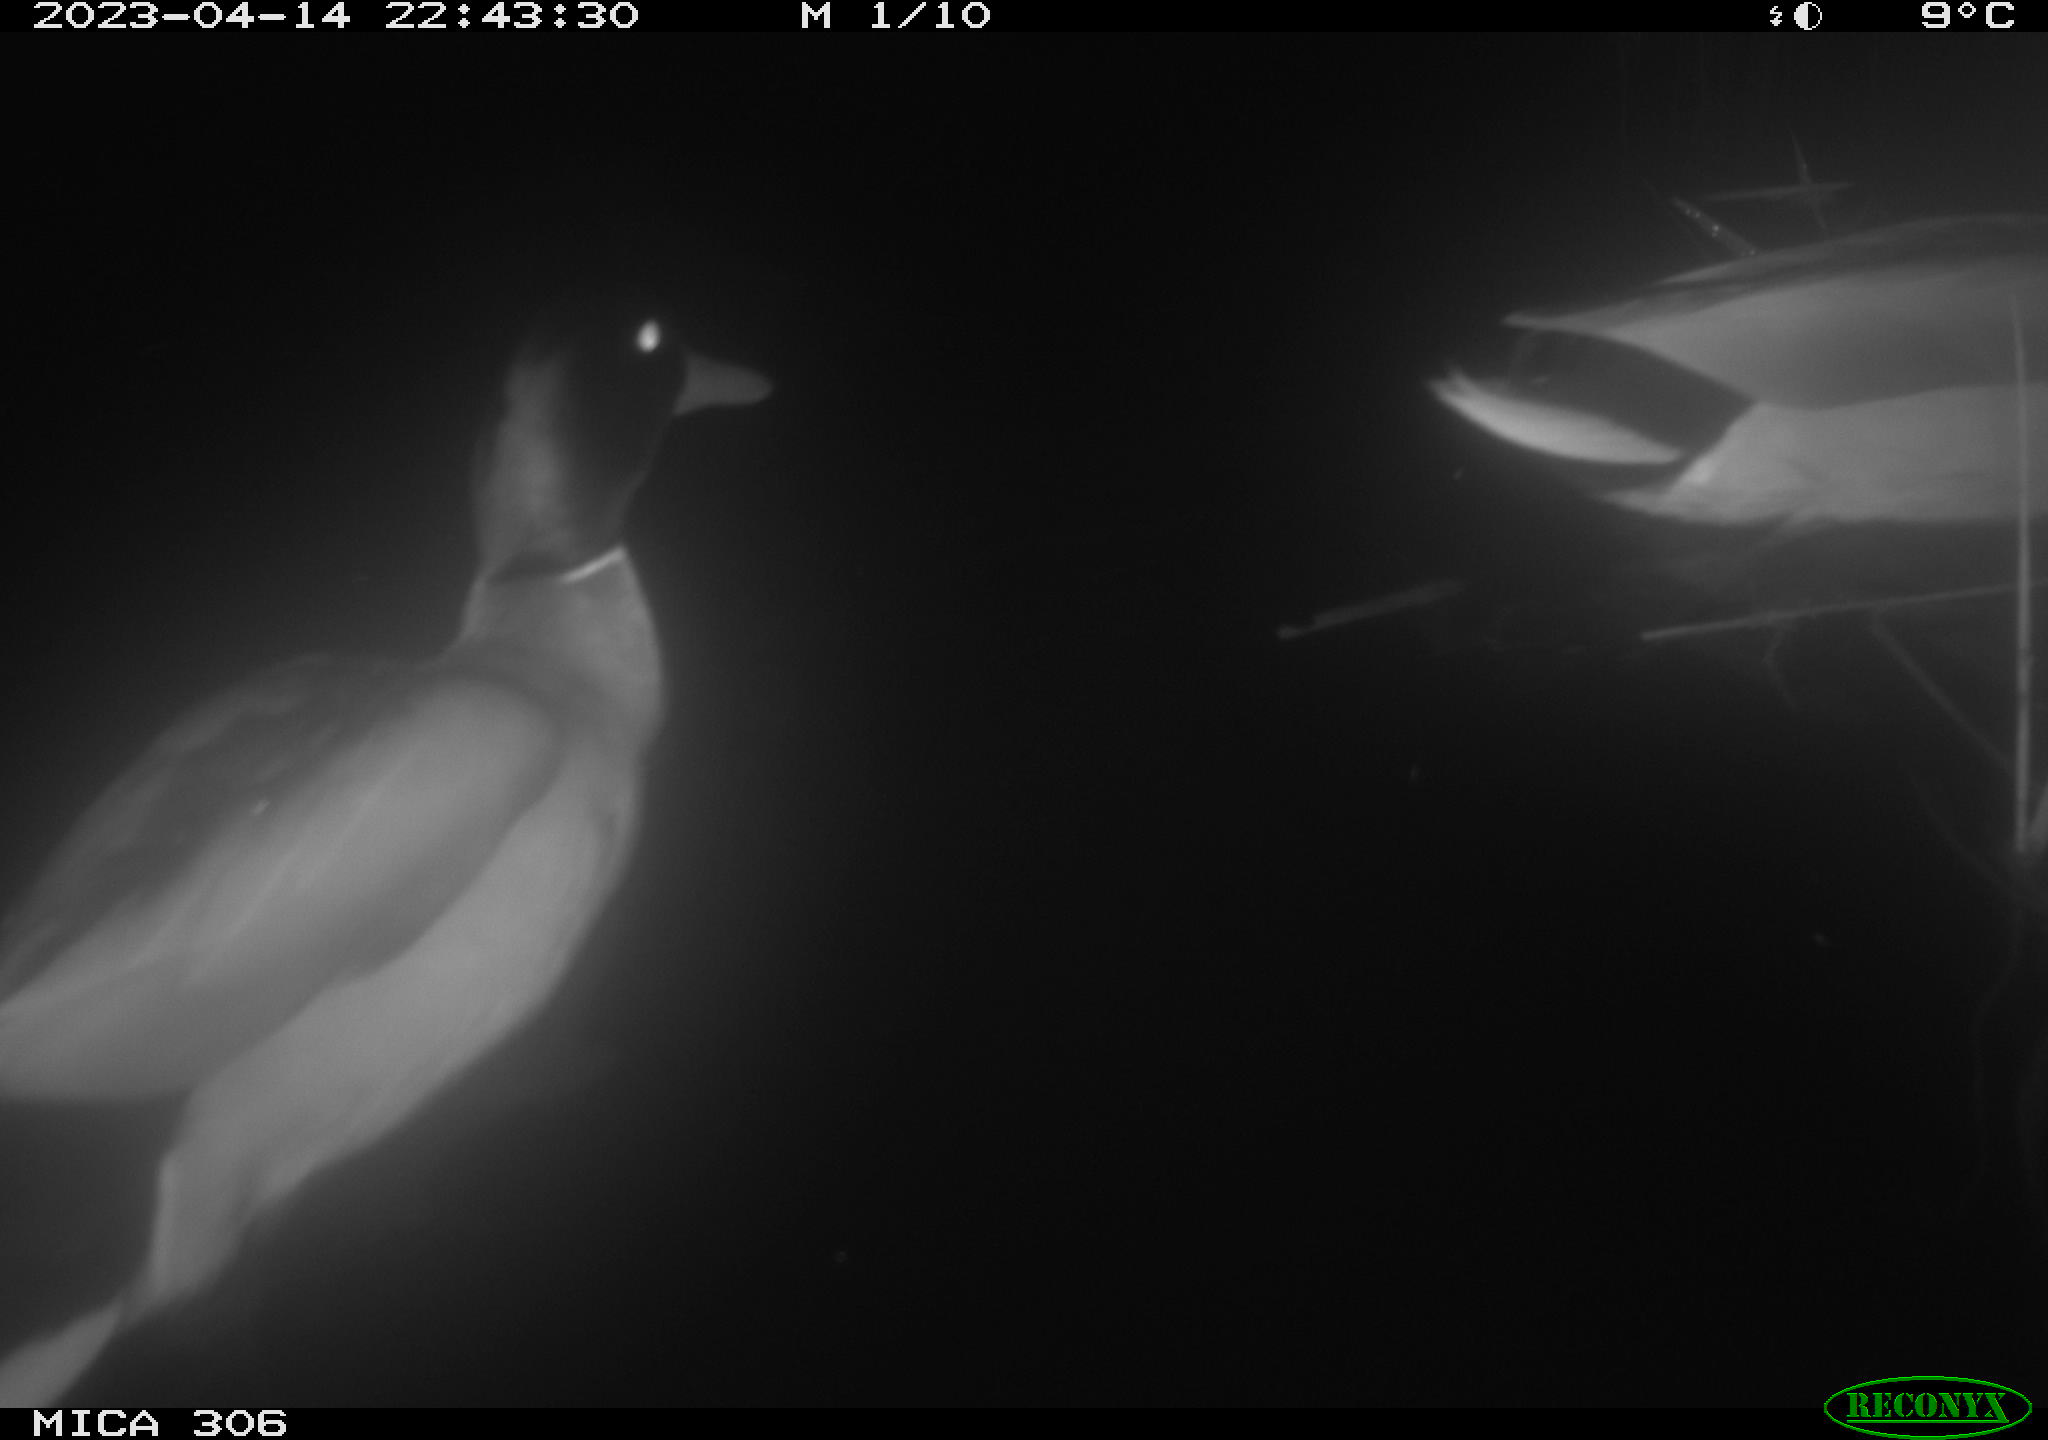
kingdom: Animalia
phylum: Chordata
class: Aves
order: Anseriformes
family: Anatidae
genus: Anas
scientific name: Anas
